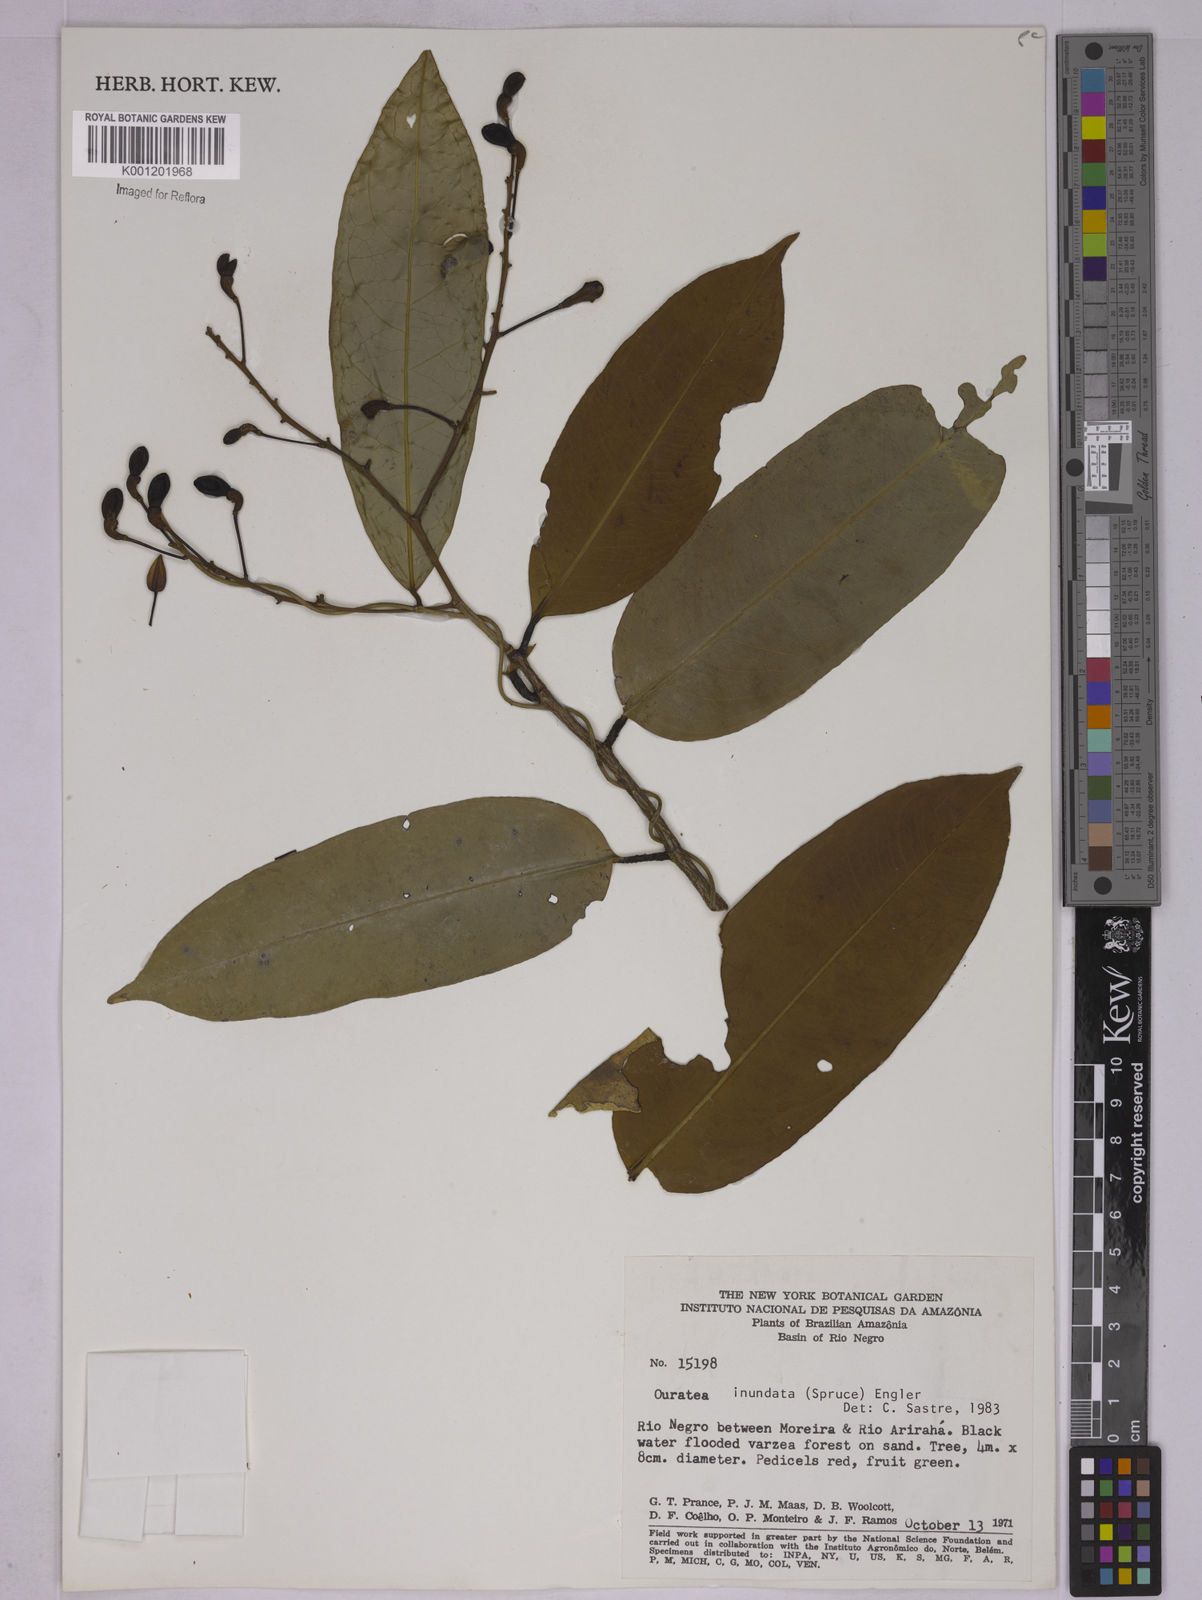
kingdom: Plantae
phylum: Tracheophyta
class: Magnoliopsida
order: Malpighiales
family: Ochnaceae
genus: Ouratea
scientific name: Ouratea inundata
